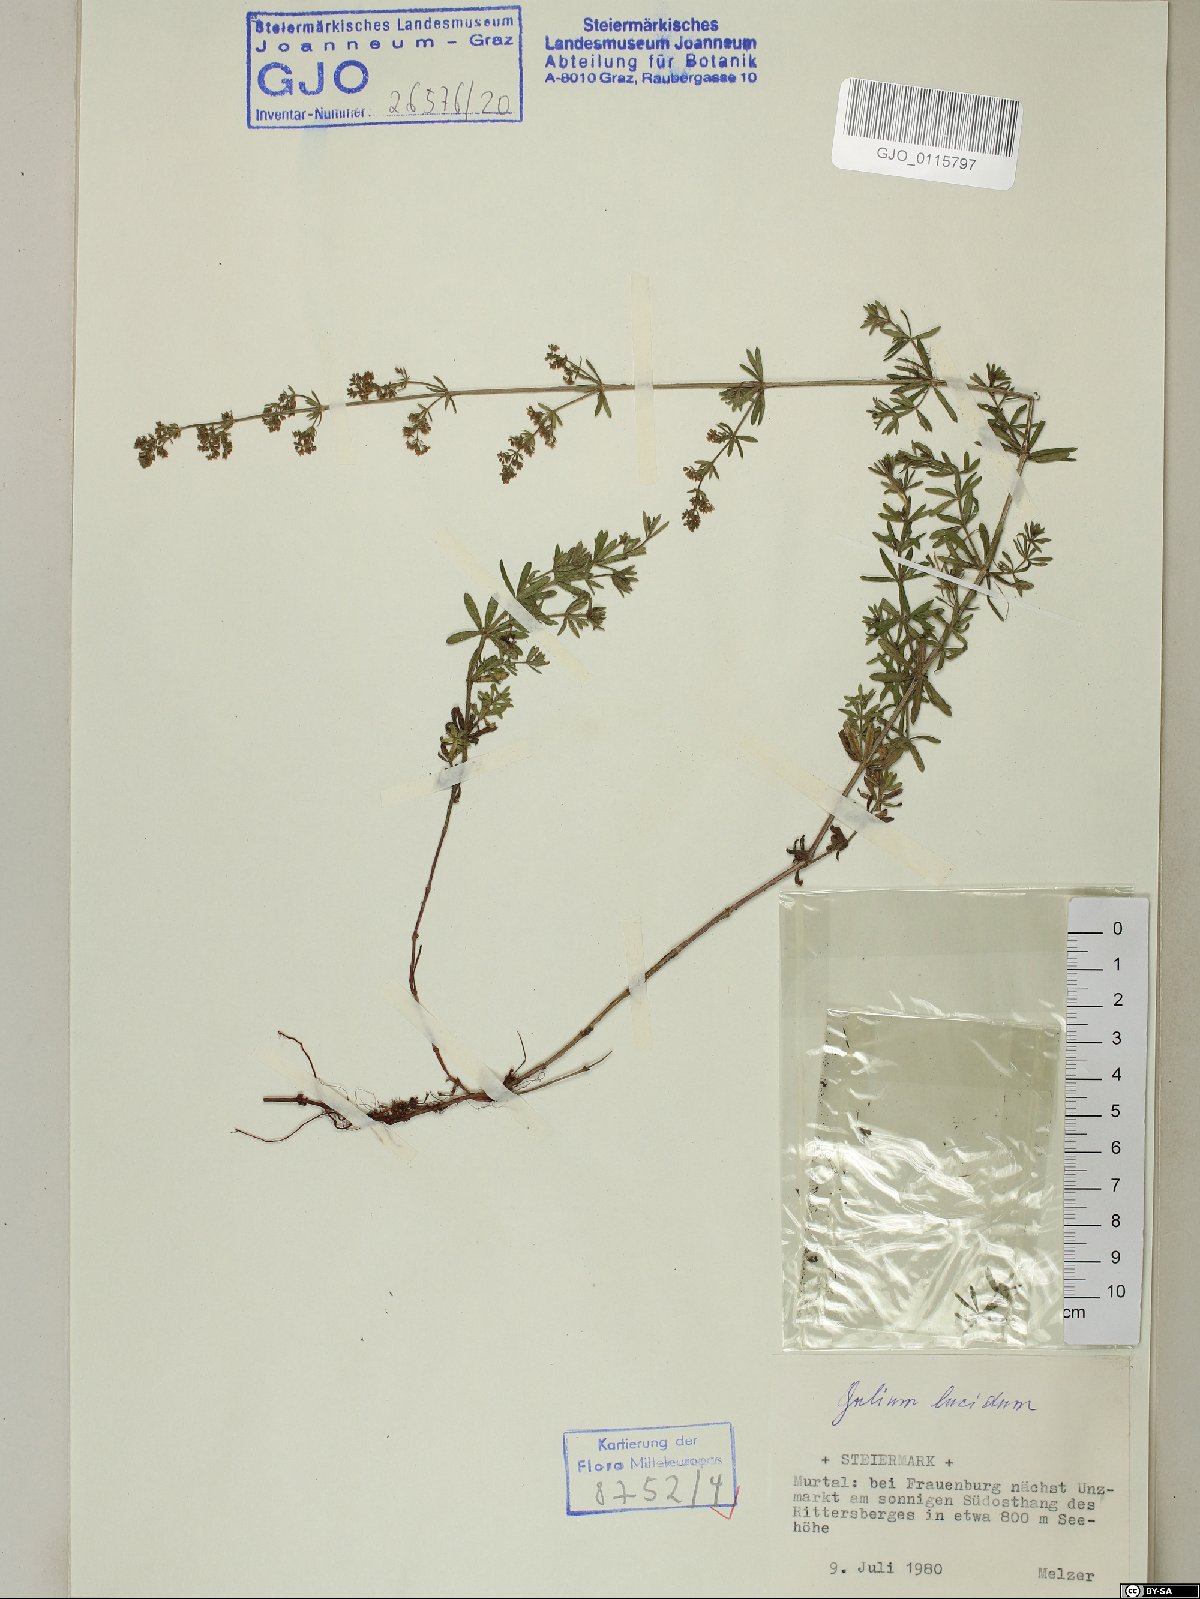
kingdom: Plantae
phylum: Tracheophyta
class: Magnoliopsida
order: Gentianales
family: Rubiaceae
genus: Galium
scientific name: Galium lucidum
